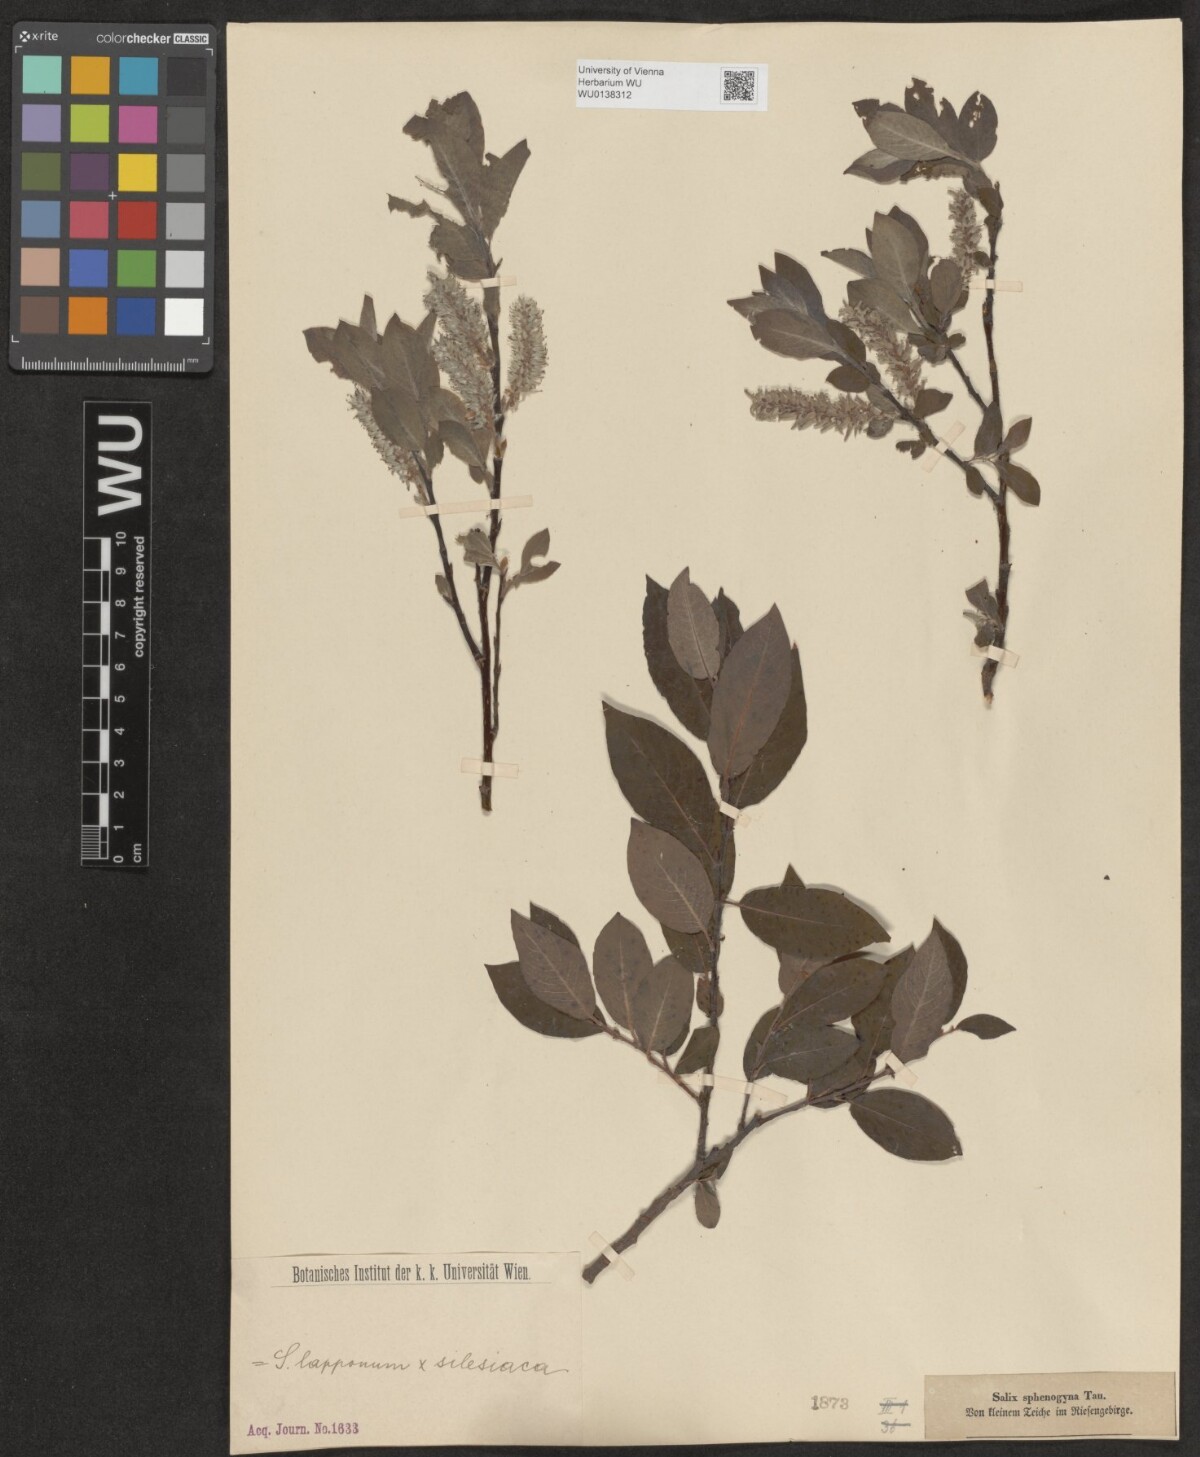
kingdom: Plantae
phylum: Tracheophyta
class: Magnoliopsida
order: Malpighiales
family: Salicaceae
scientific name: Salicaceae
